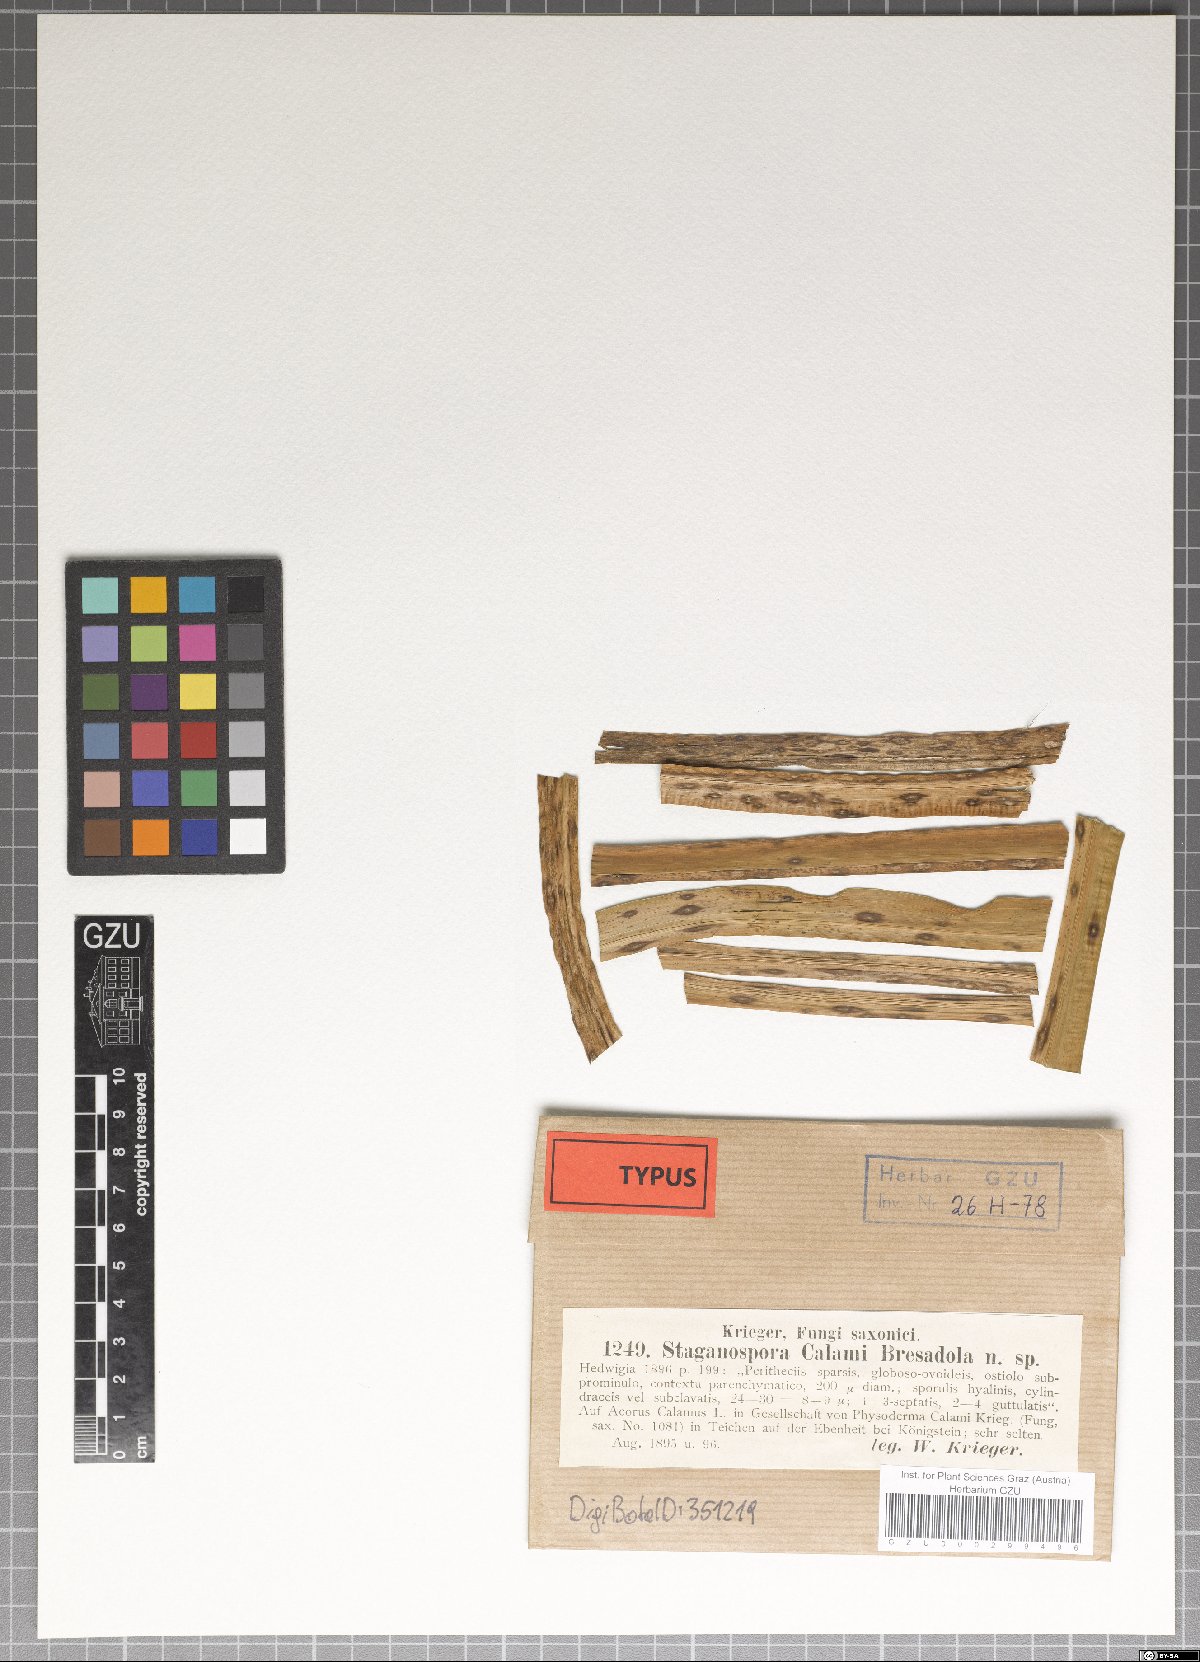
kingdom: Fungi
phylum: Ascomycota
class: Dothideomycetes
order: Pleosporales
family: Didymellaceae
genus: Ascochyta
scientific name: Ascochyta calami
